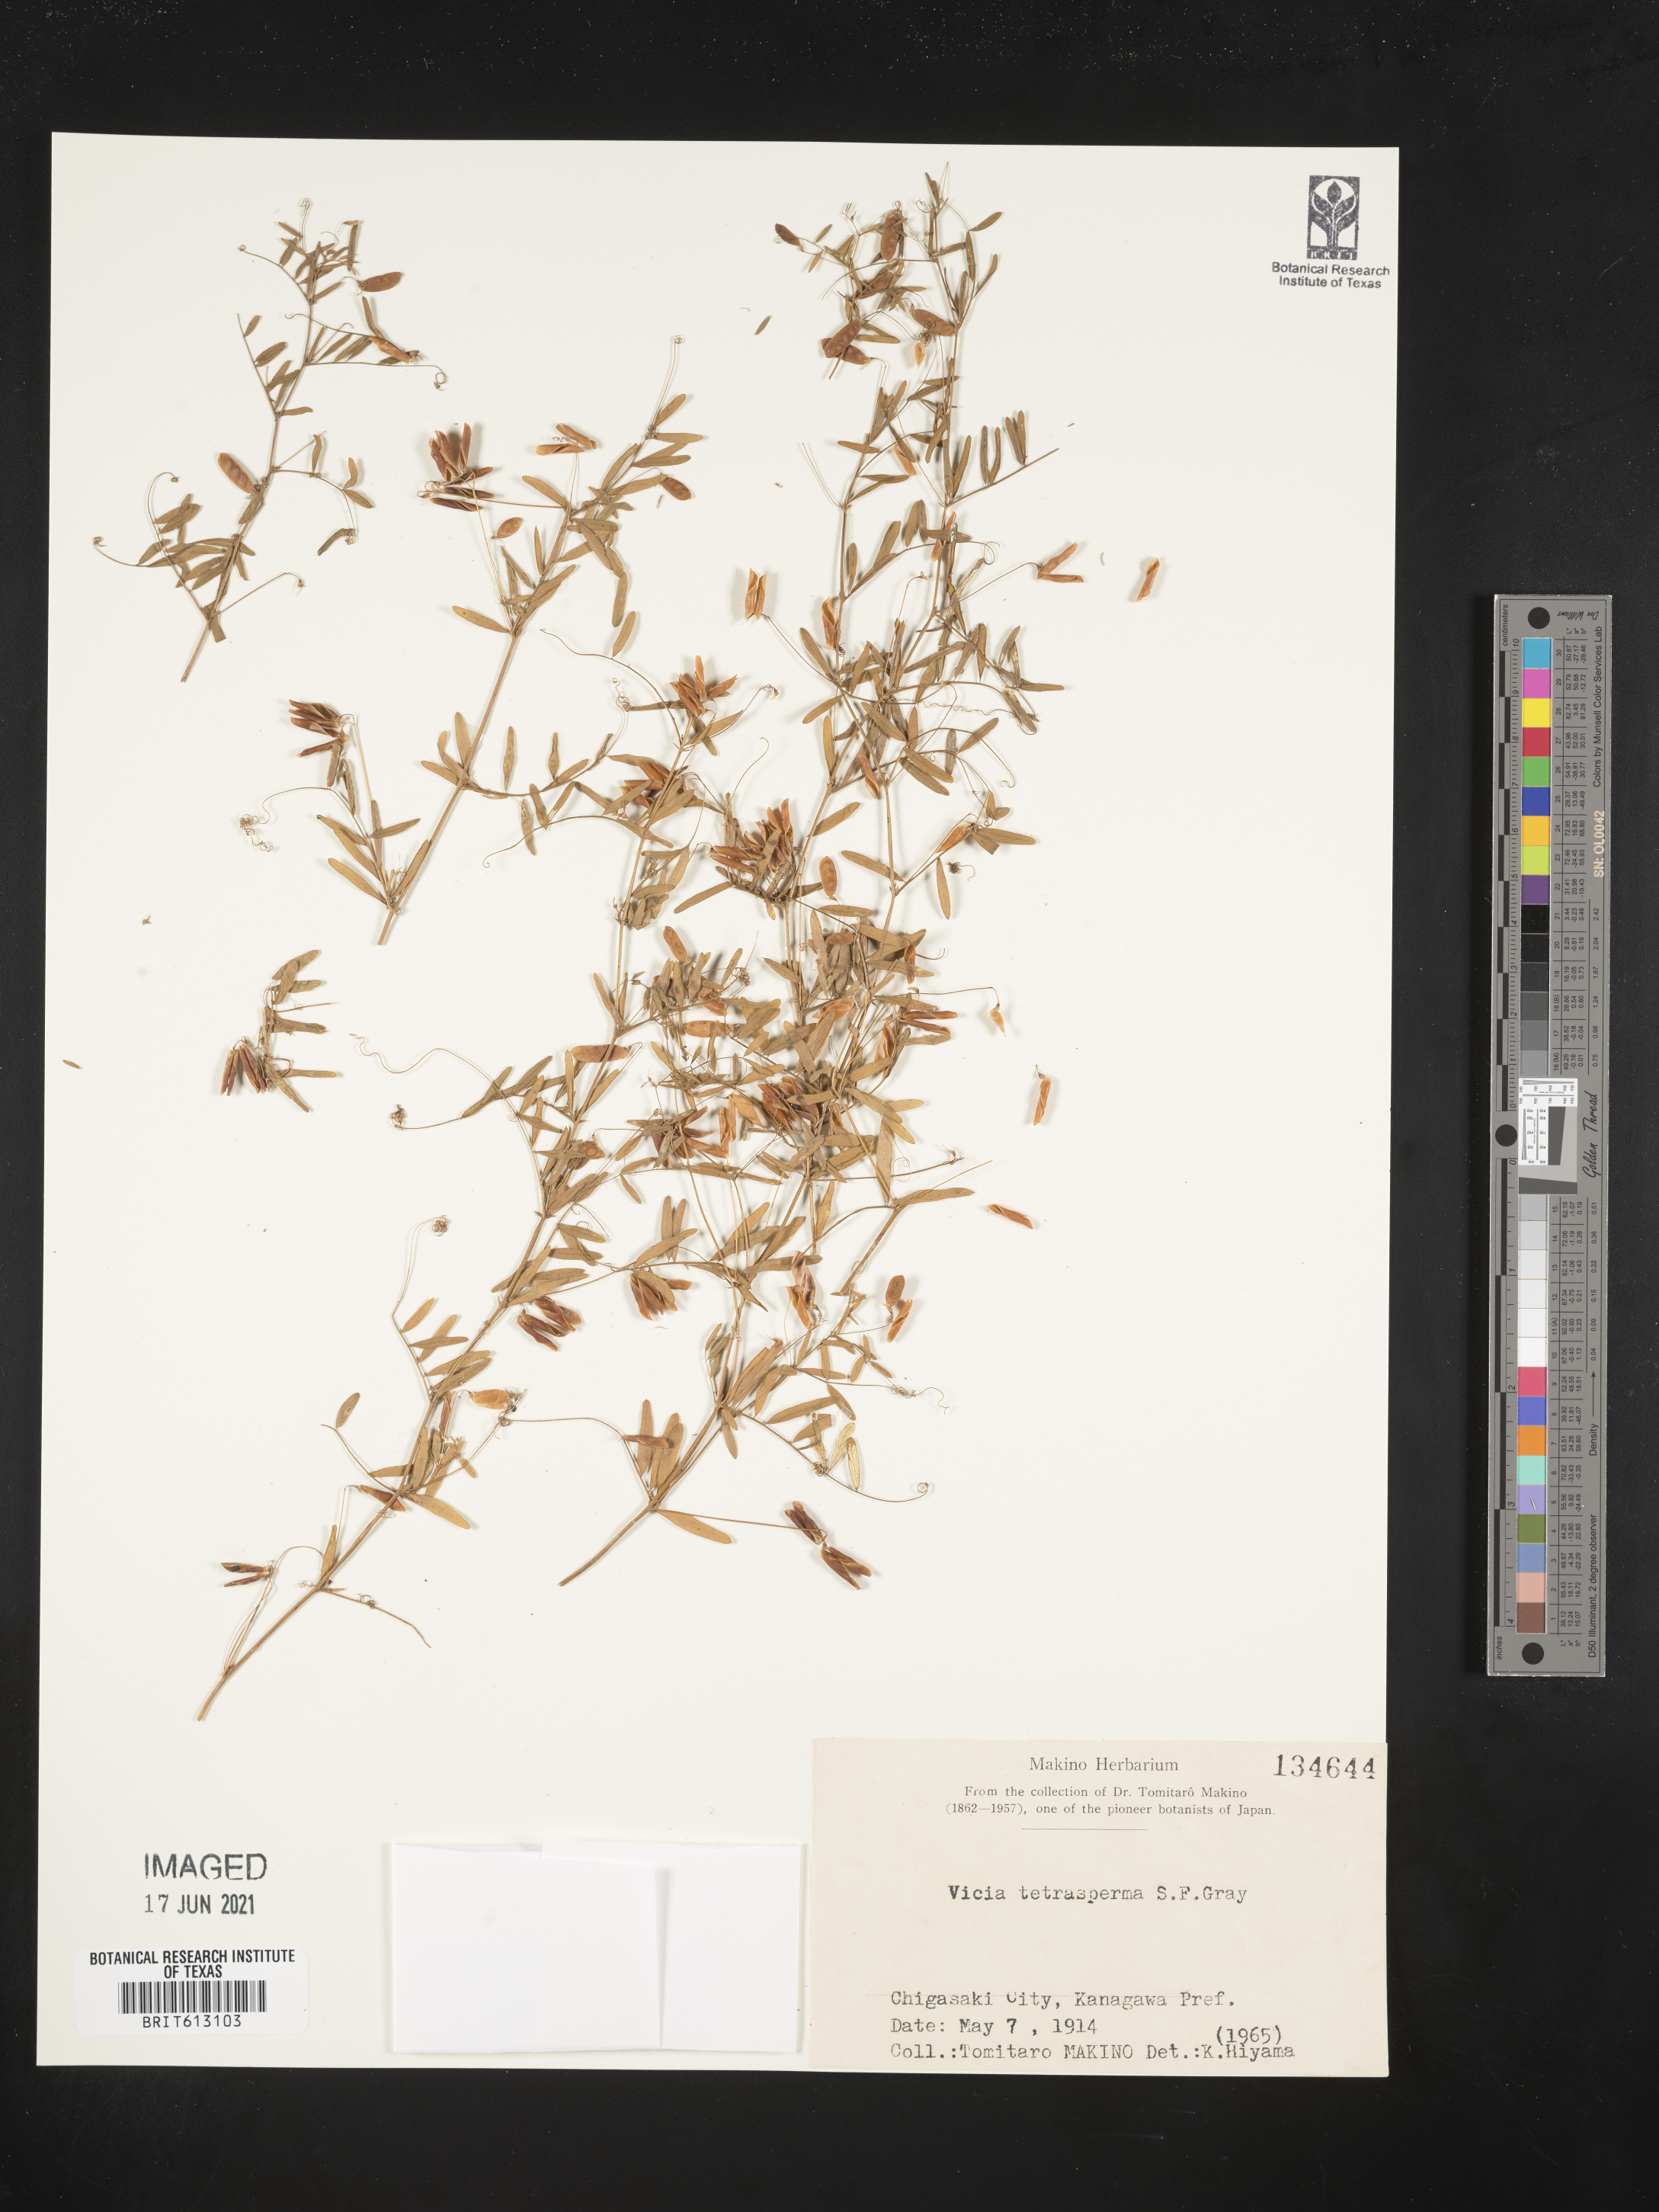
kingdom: Plantae
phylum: Tracheophyta
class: Magnoliopsida
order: Fabales
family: Fabaceae
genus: Vicia
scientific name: Vicia tetrasperma
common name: Smooth tare
